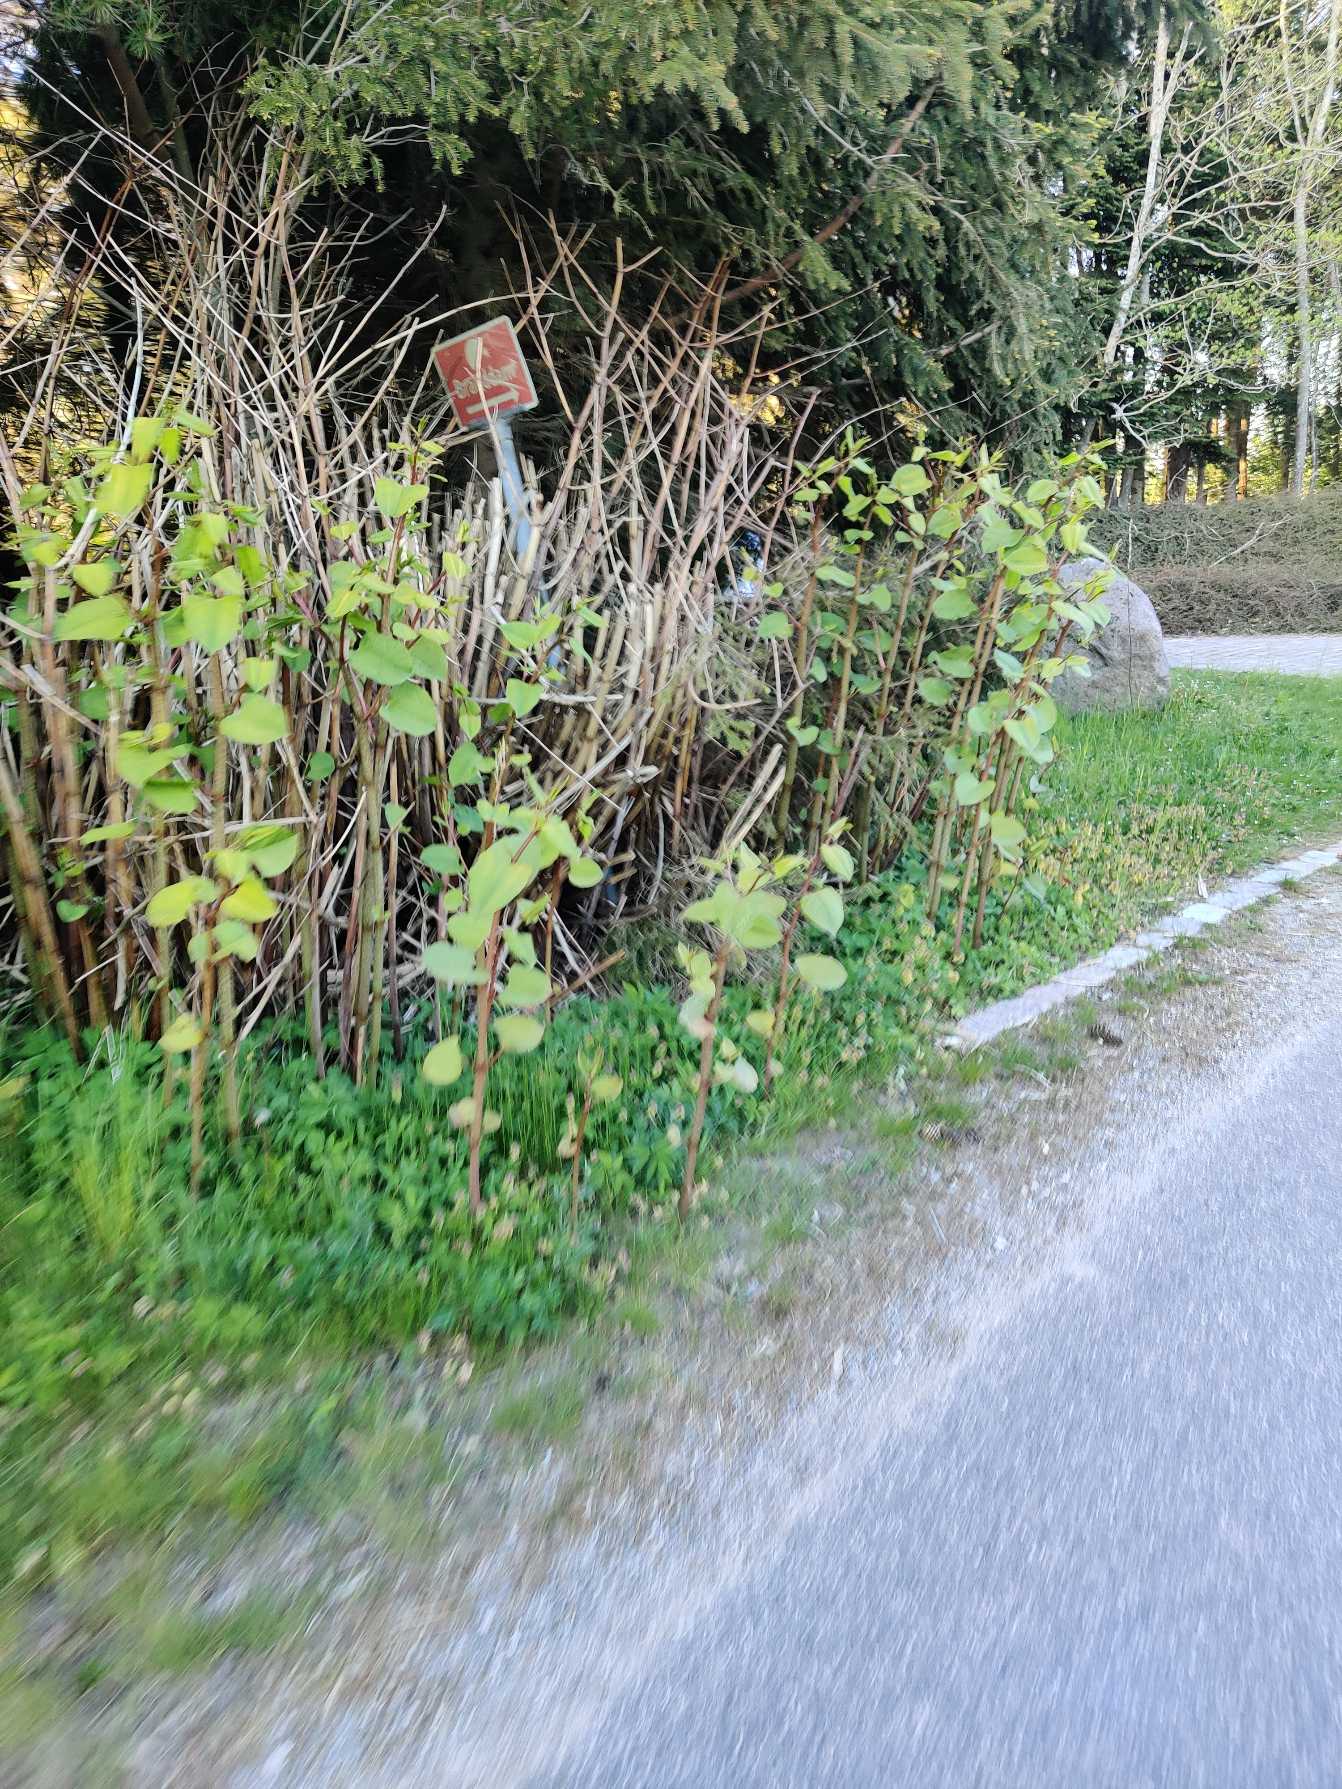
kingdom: Plantae
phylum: Tracheophyta
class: Magnoliopsida
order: Caryophyllales
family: Polygonaceae
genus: Reynoutria
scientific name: Reynoutria
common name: Pileurt (Reynoutria-slægten)
